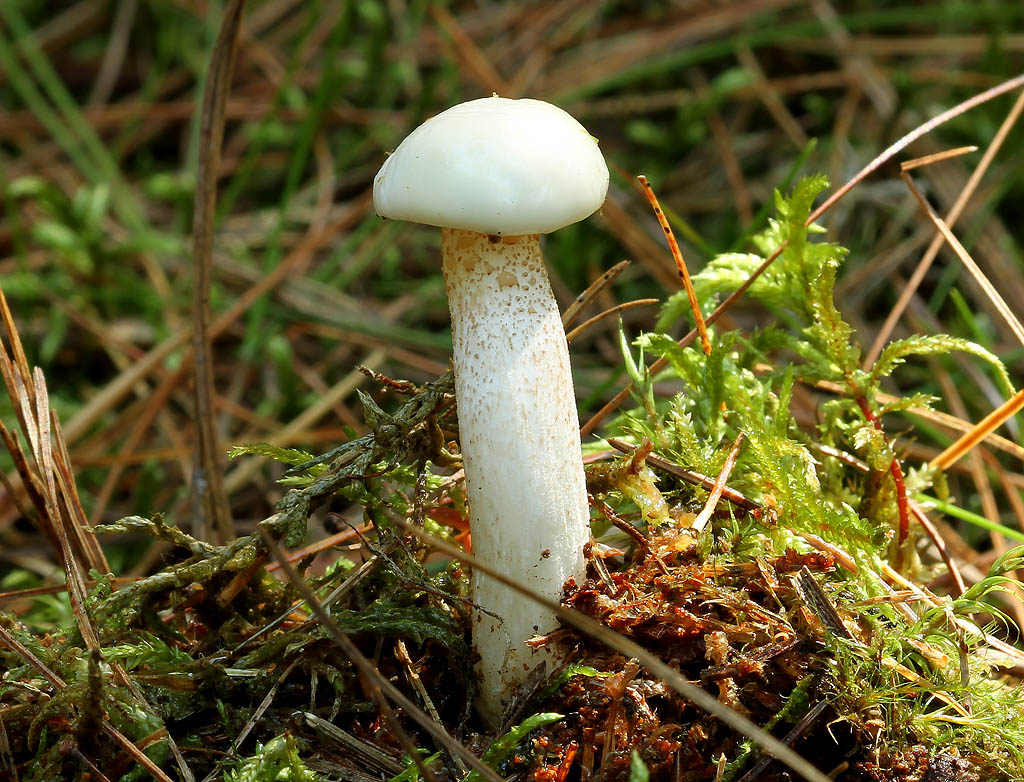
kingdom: Fungi
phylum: Basidiomycota
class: Agaricomycetes
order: Boletales
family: Suillaceae
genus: Suillus
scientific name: Suillus placidus
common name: elfenbens-slimrørhat
